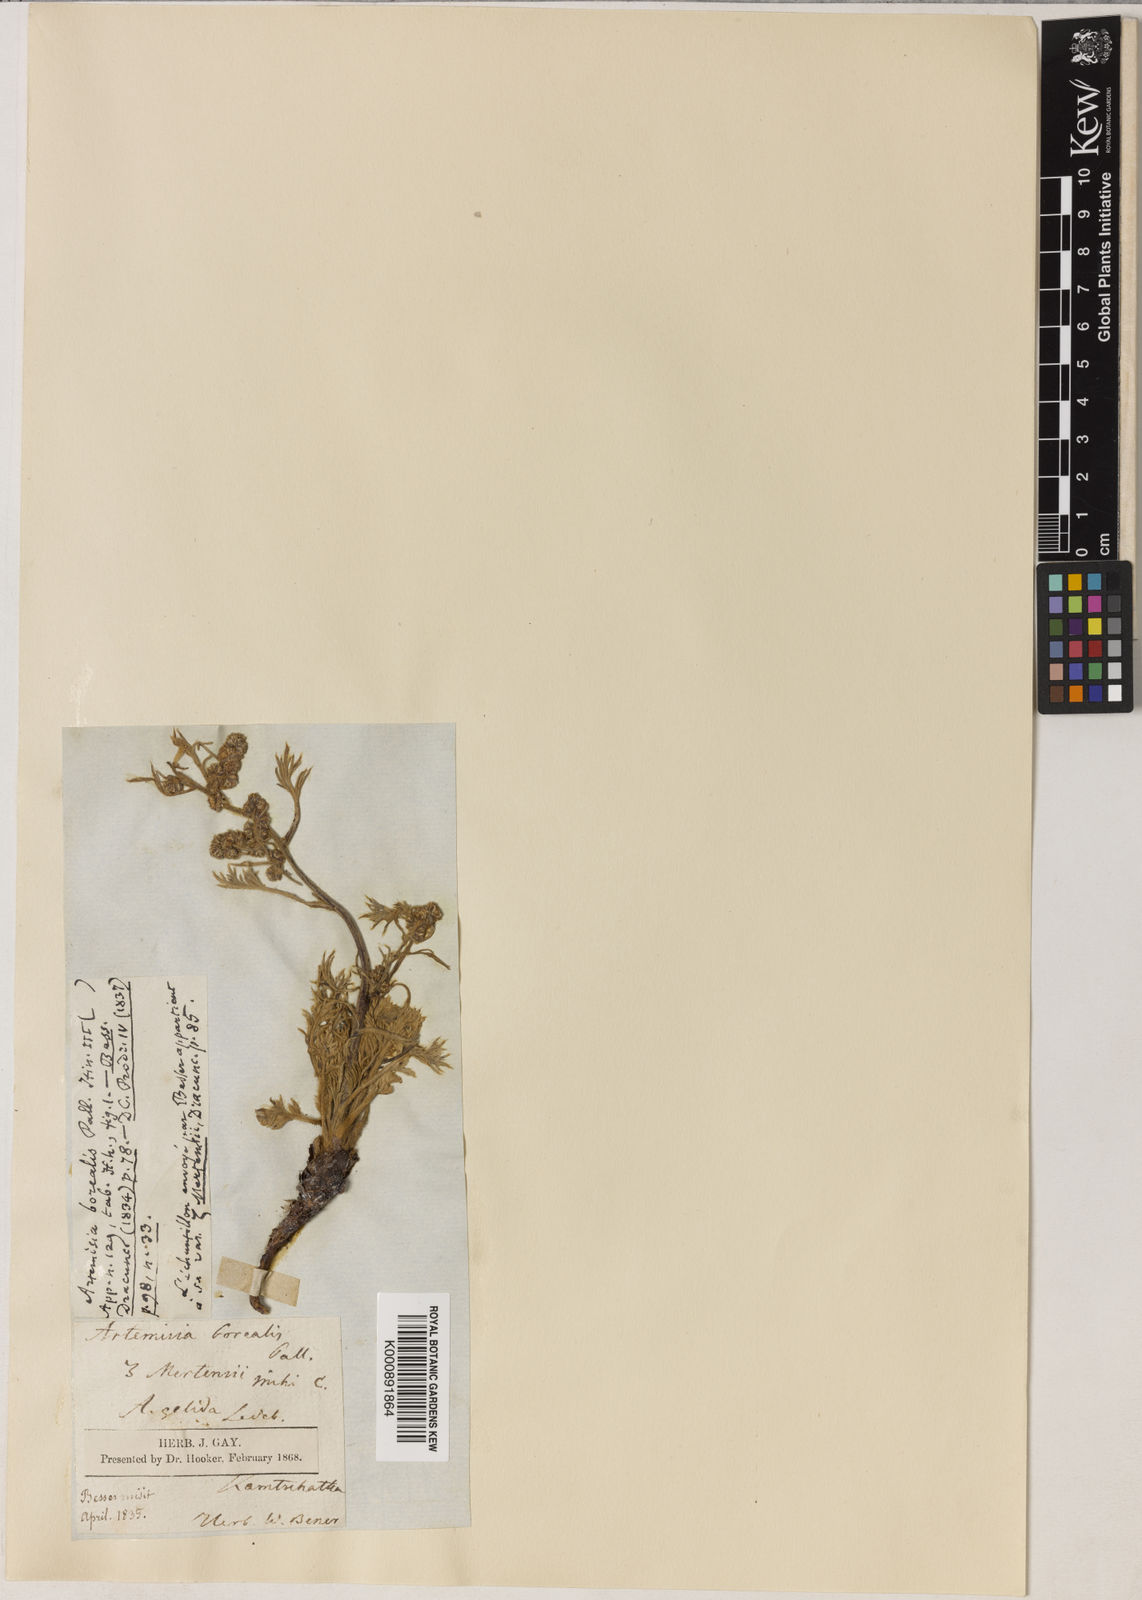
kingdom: Plantae
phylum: Tracheophyta
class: Magnoliopsida
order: Asterales
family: Asteraceae
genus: Artemisia
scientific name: Artemisia borealis
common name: Boreal sage
